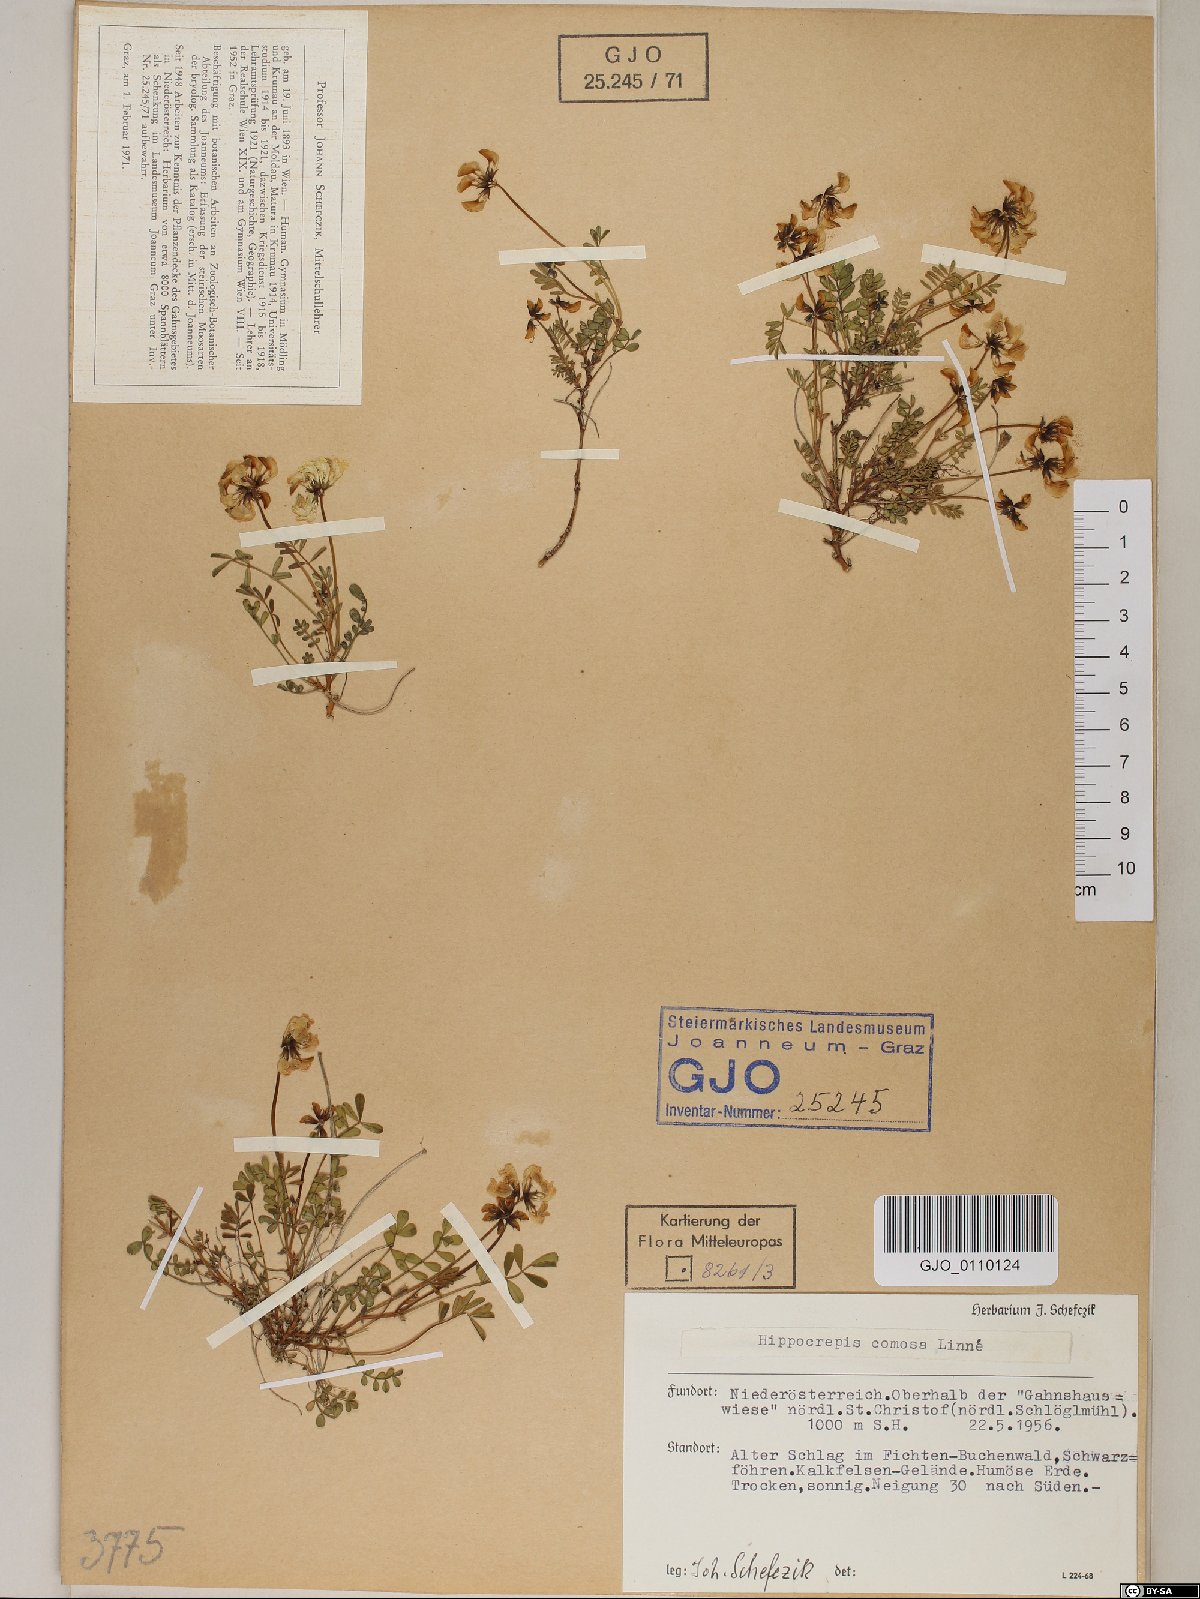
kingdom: Plantae
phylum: Tracheophyta
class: Magnoliopsida
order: Fabales
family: Fabaceae
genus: Hippocrepis
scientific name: Hippocrepis comosa
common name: Horseshoe vetch
